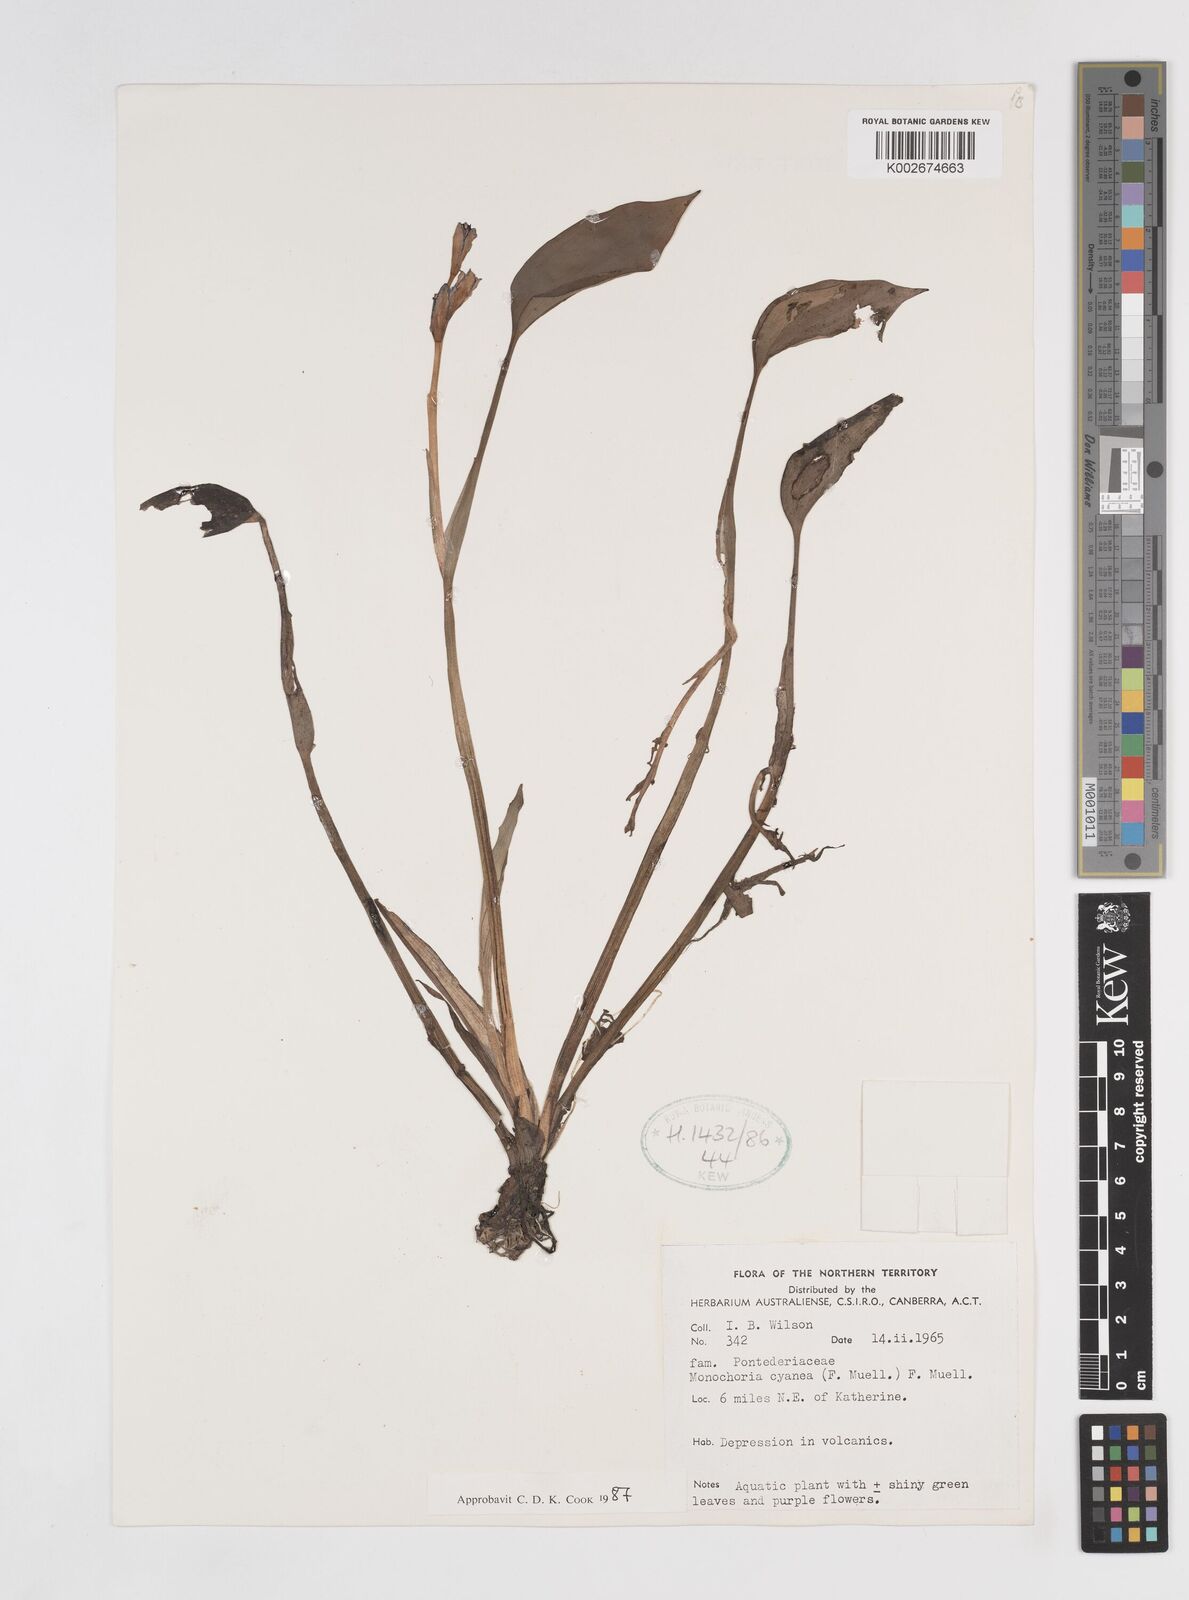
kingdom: Plantae
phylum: Tracheophyta
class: Liliopsida
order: Commelinales
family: Pontederiaceae
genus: Pontederia
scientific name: Pontederia cyanea
